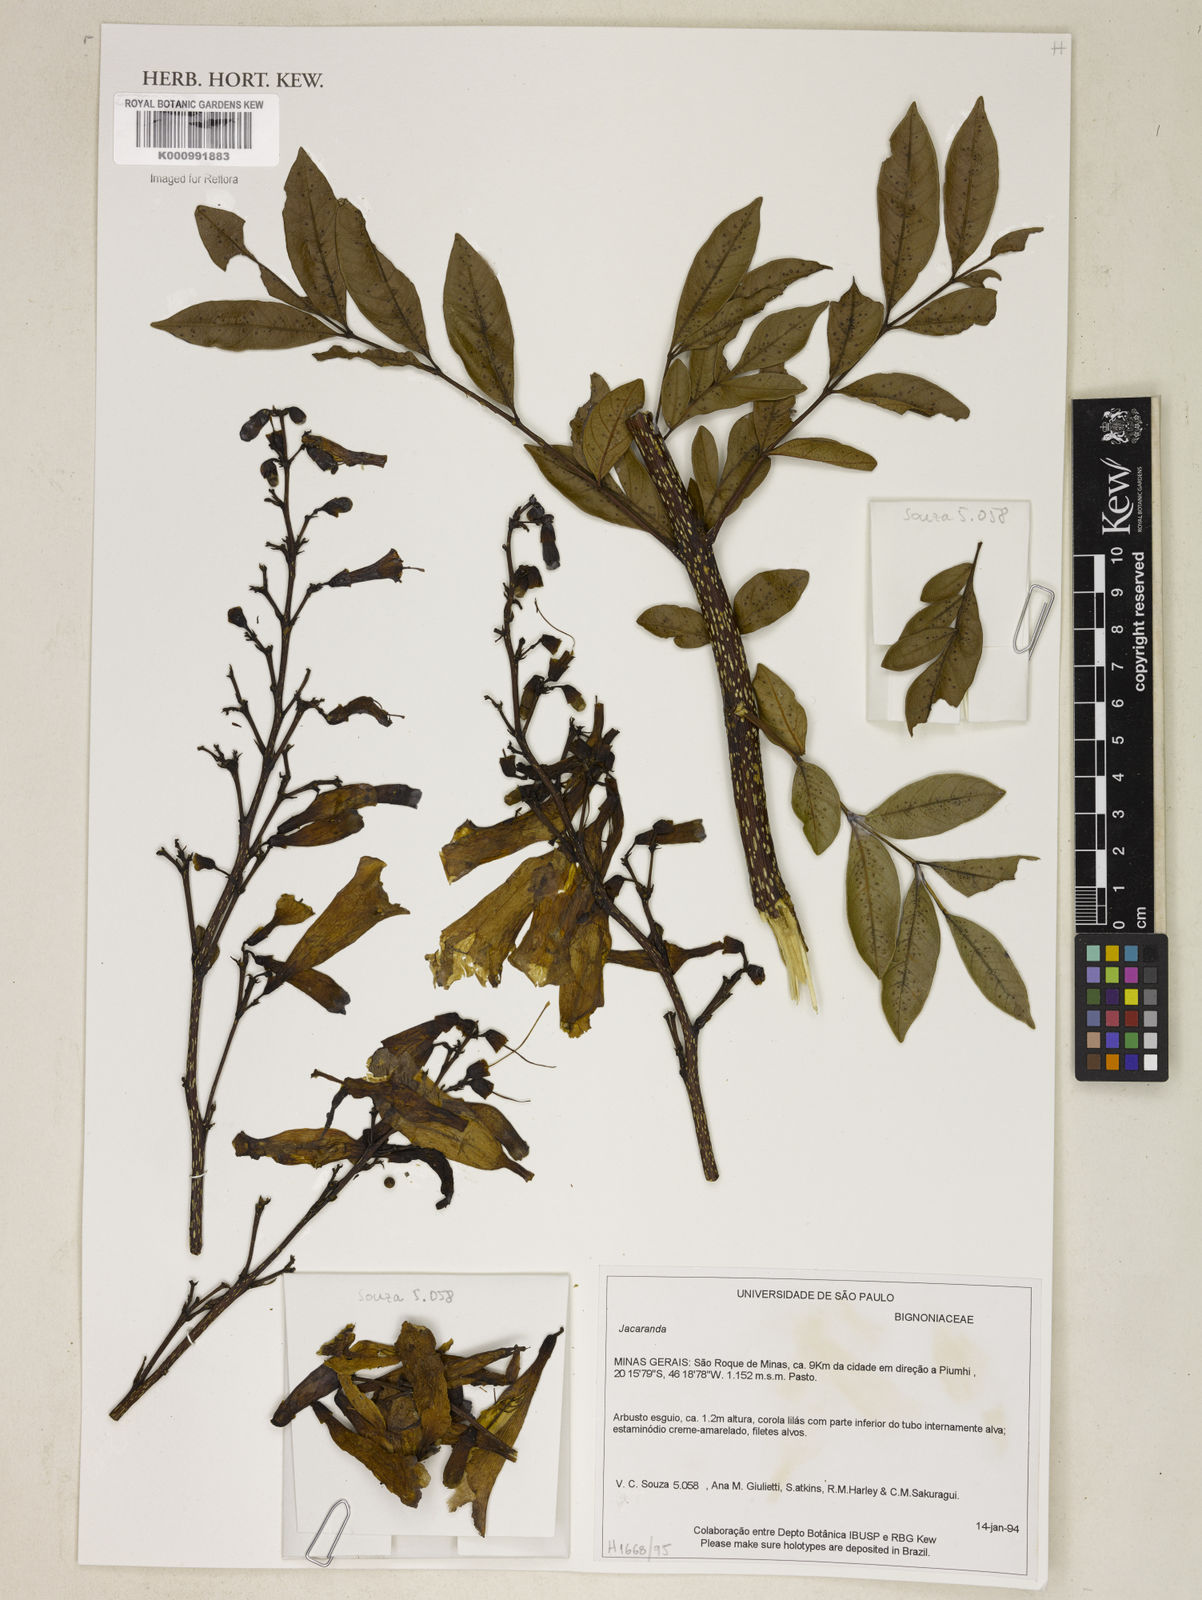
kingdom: Plantae
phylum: Tracheophyta
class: Magnoliopsida
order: Lamiales
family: Bignoniaceae
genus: Jacaranda
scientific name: Jacaranda
